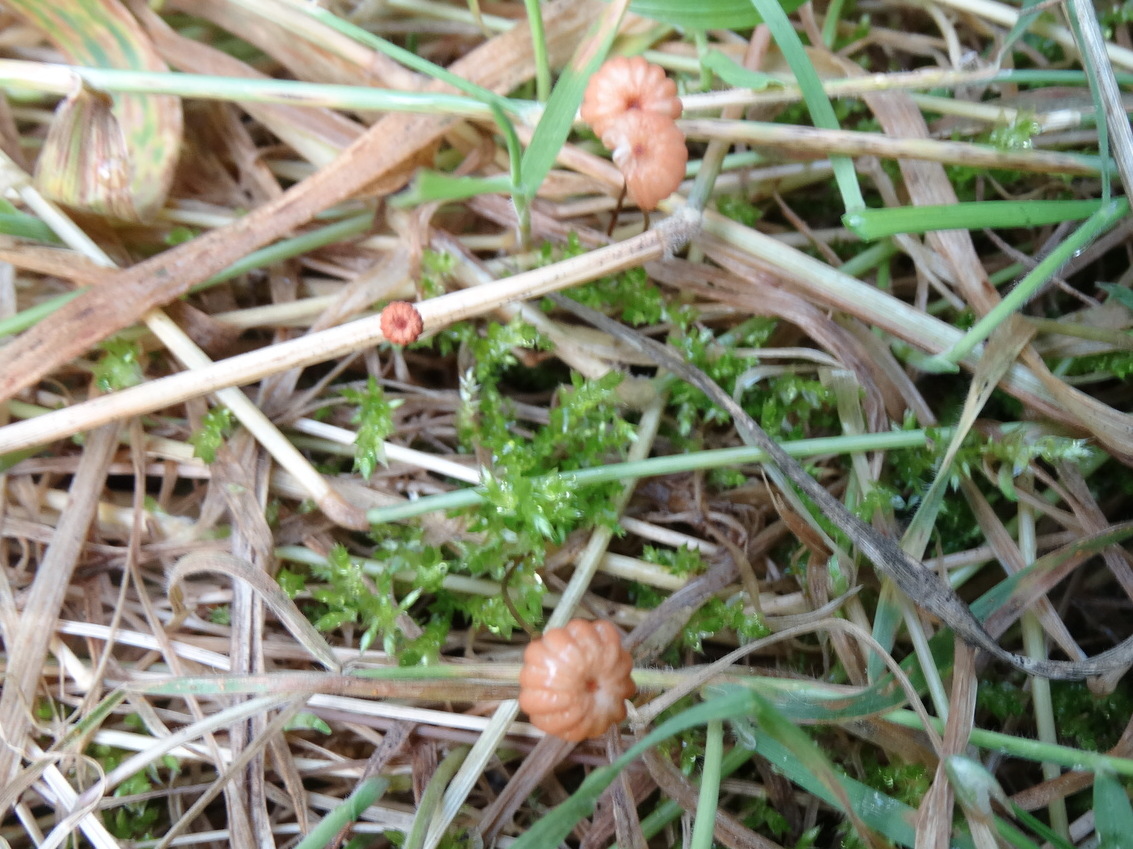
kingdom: Fungi
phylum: Basidiomycota
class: Agaricomycetes
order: Agaricales
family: Marasmiaceae
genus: Marasmius
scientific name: Marasmius curreyi
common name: teglrød bruskhat
